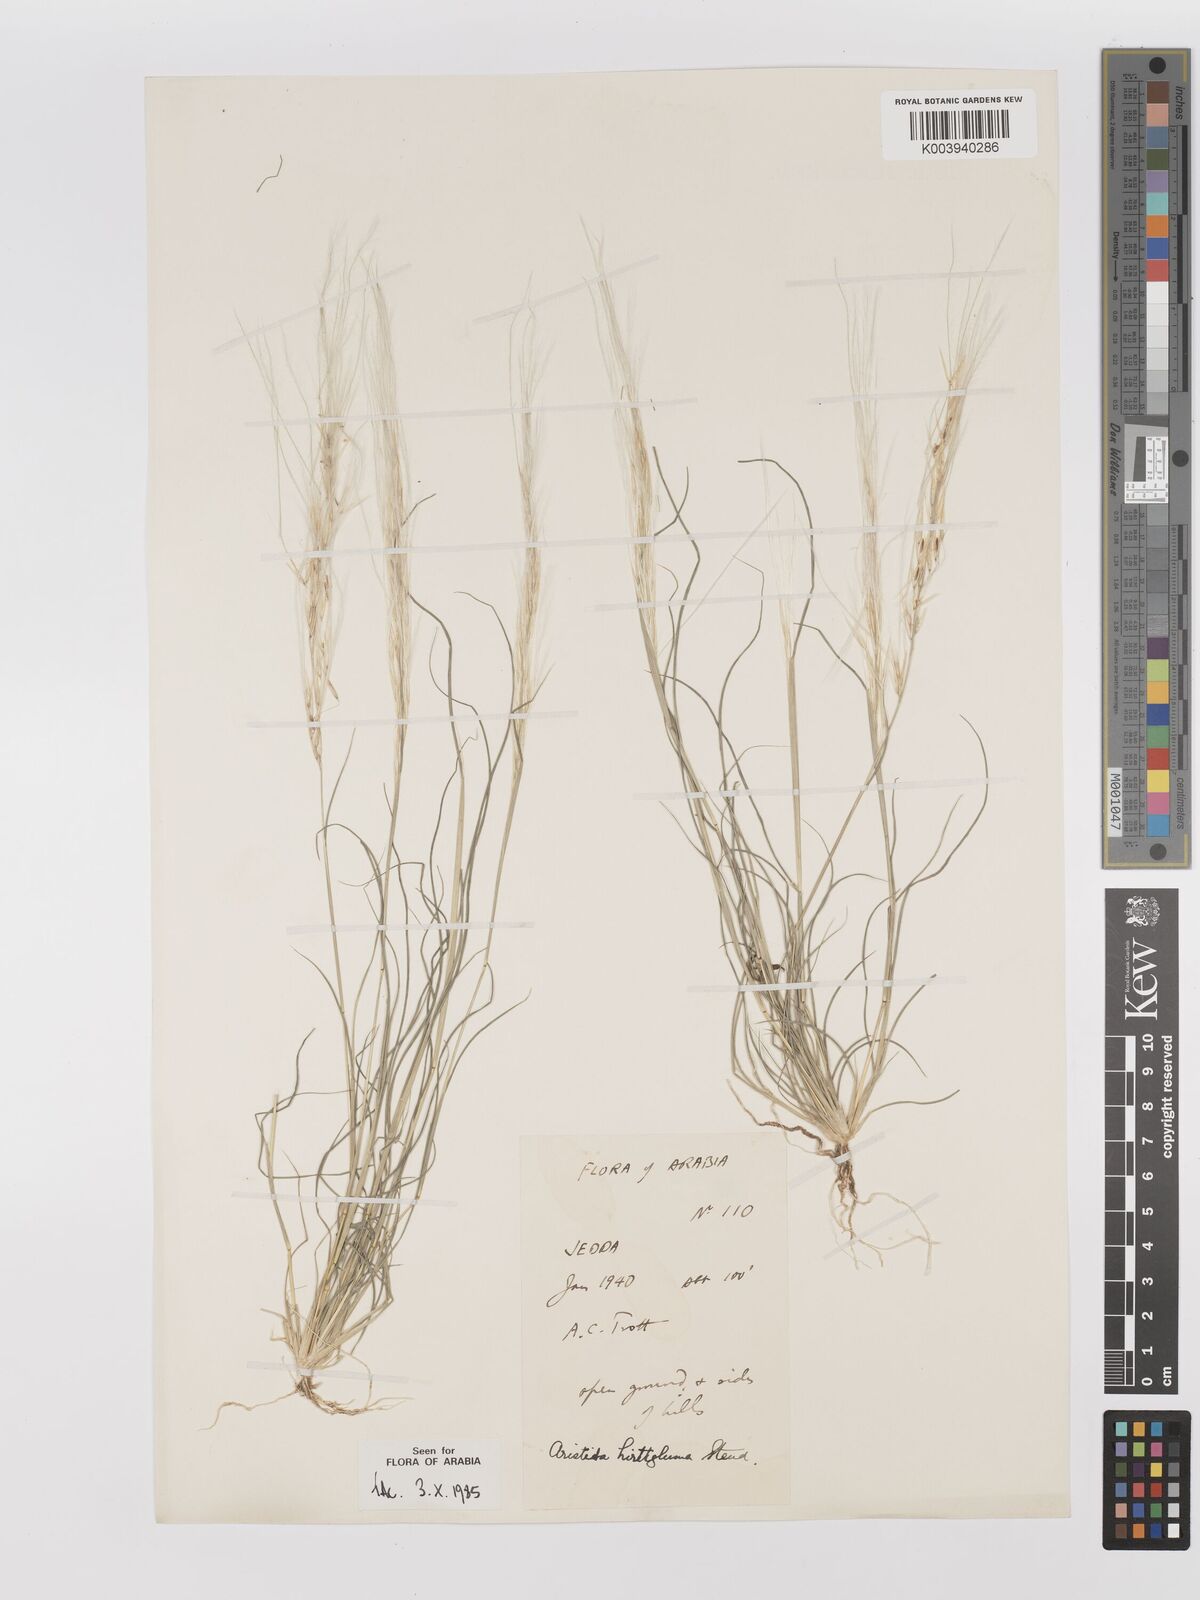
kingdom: Plantae
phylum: Tracheophyta
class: Liliopsida
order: Poales
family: Poaceae
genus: Stipagrostis
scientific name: Stipagrostis hirtigluma
